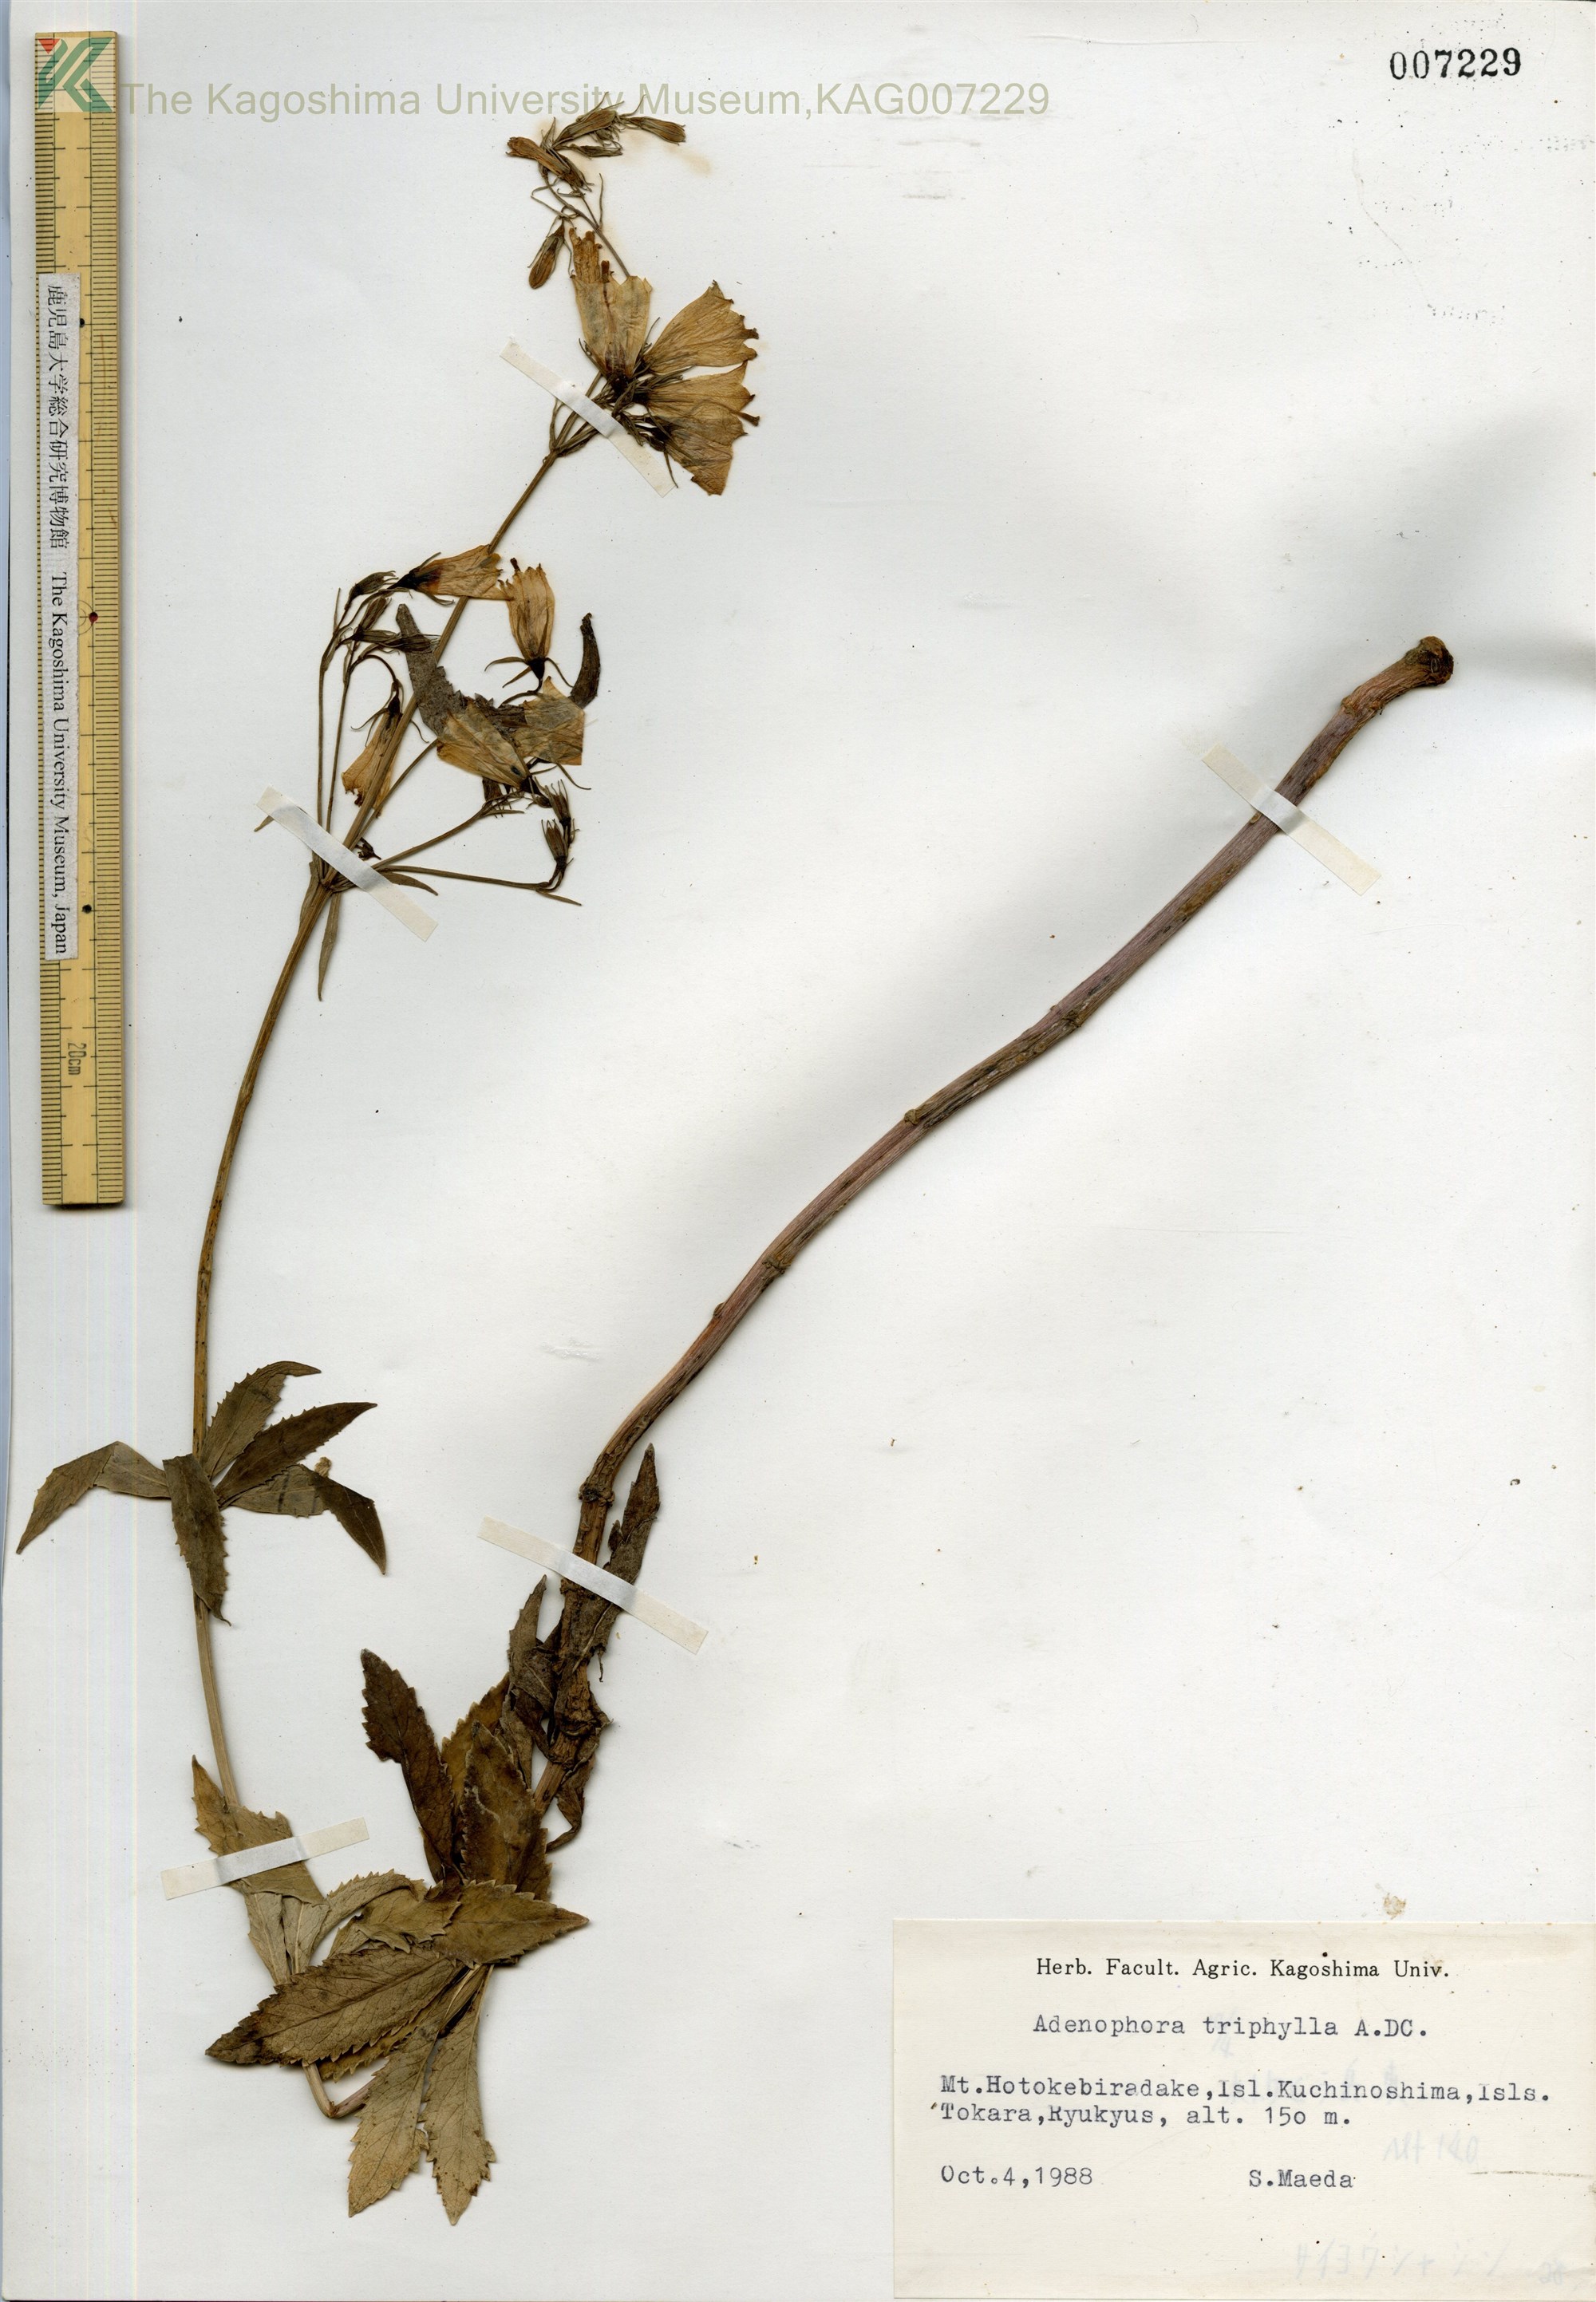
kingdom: Plantae
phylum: Tracheophyta
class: Magnoliopsida
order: Asterales
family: Campanulaceae
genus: Adenophora
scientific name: Adenophora tashiroi
